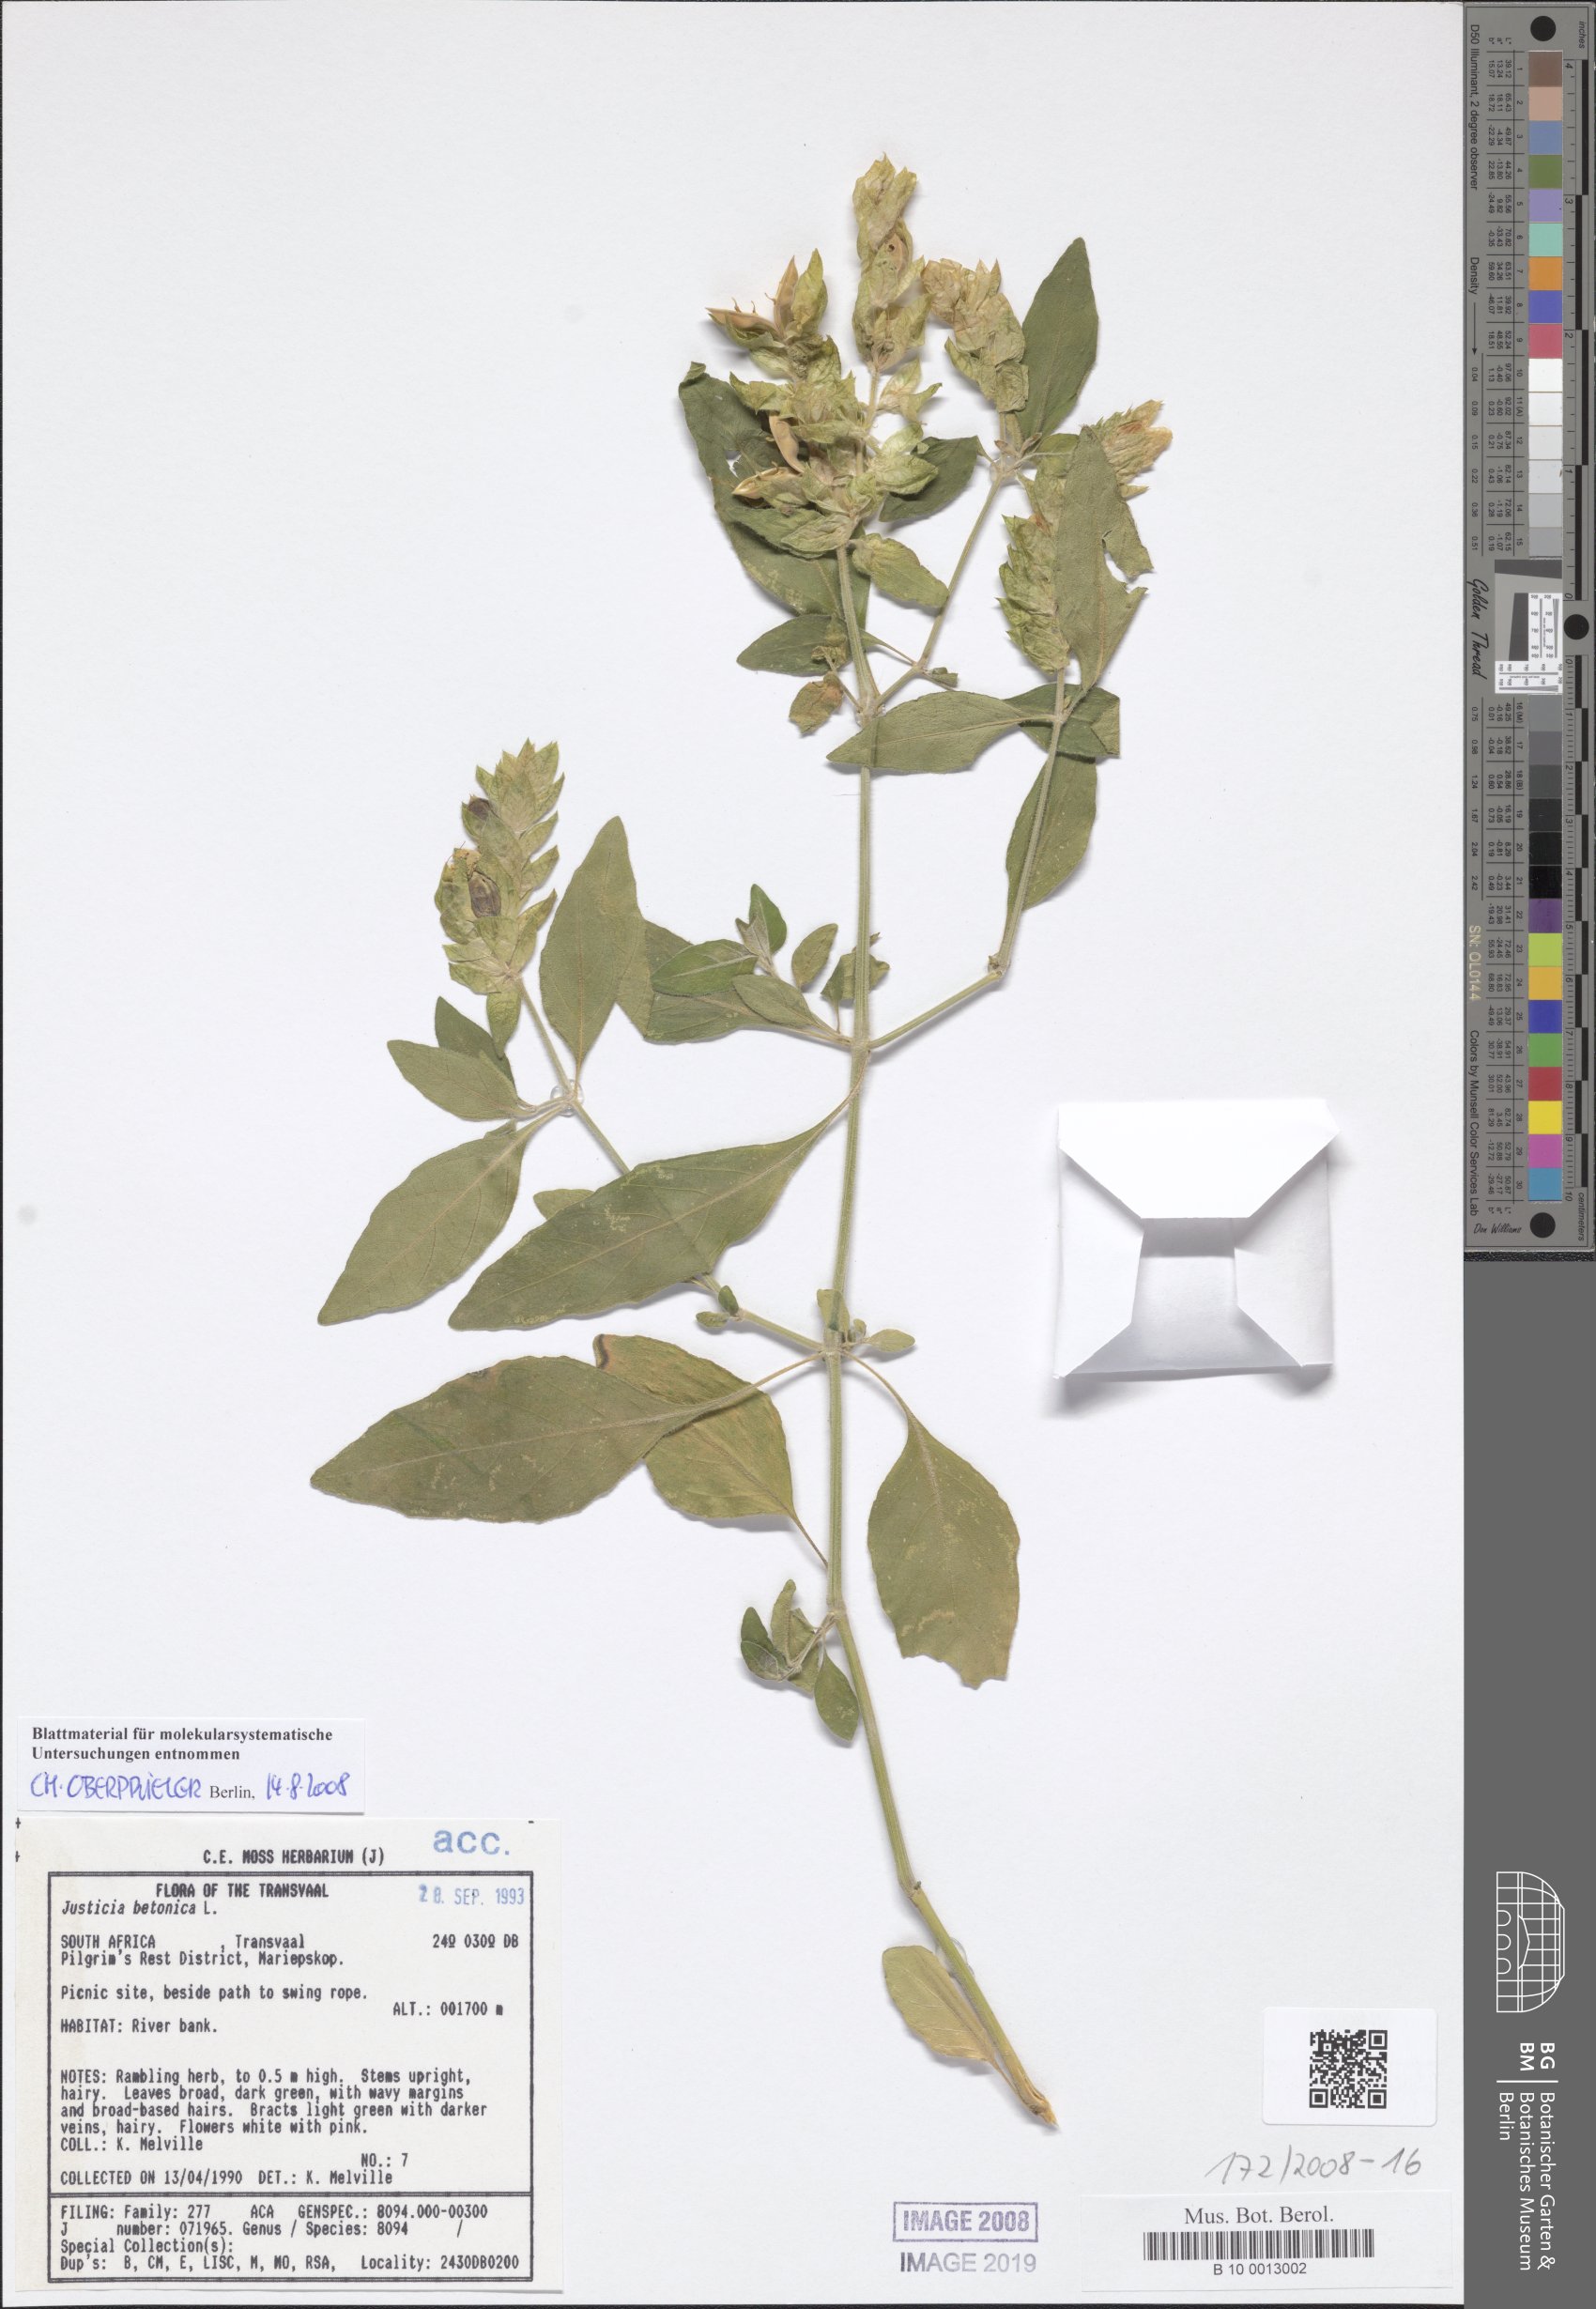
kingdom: Plantae
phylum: Tracheophyta
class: Magnoliopsida
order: Lamiales
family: Acanthaceae
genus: Nicoteba
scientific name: Nicoteba betonica
